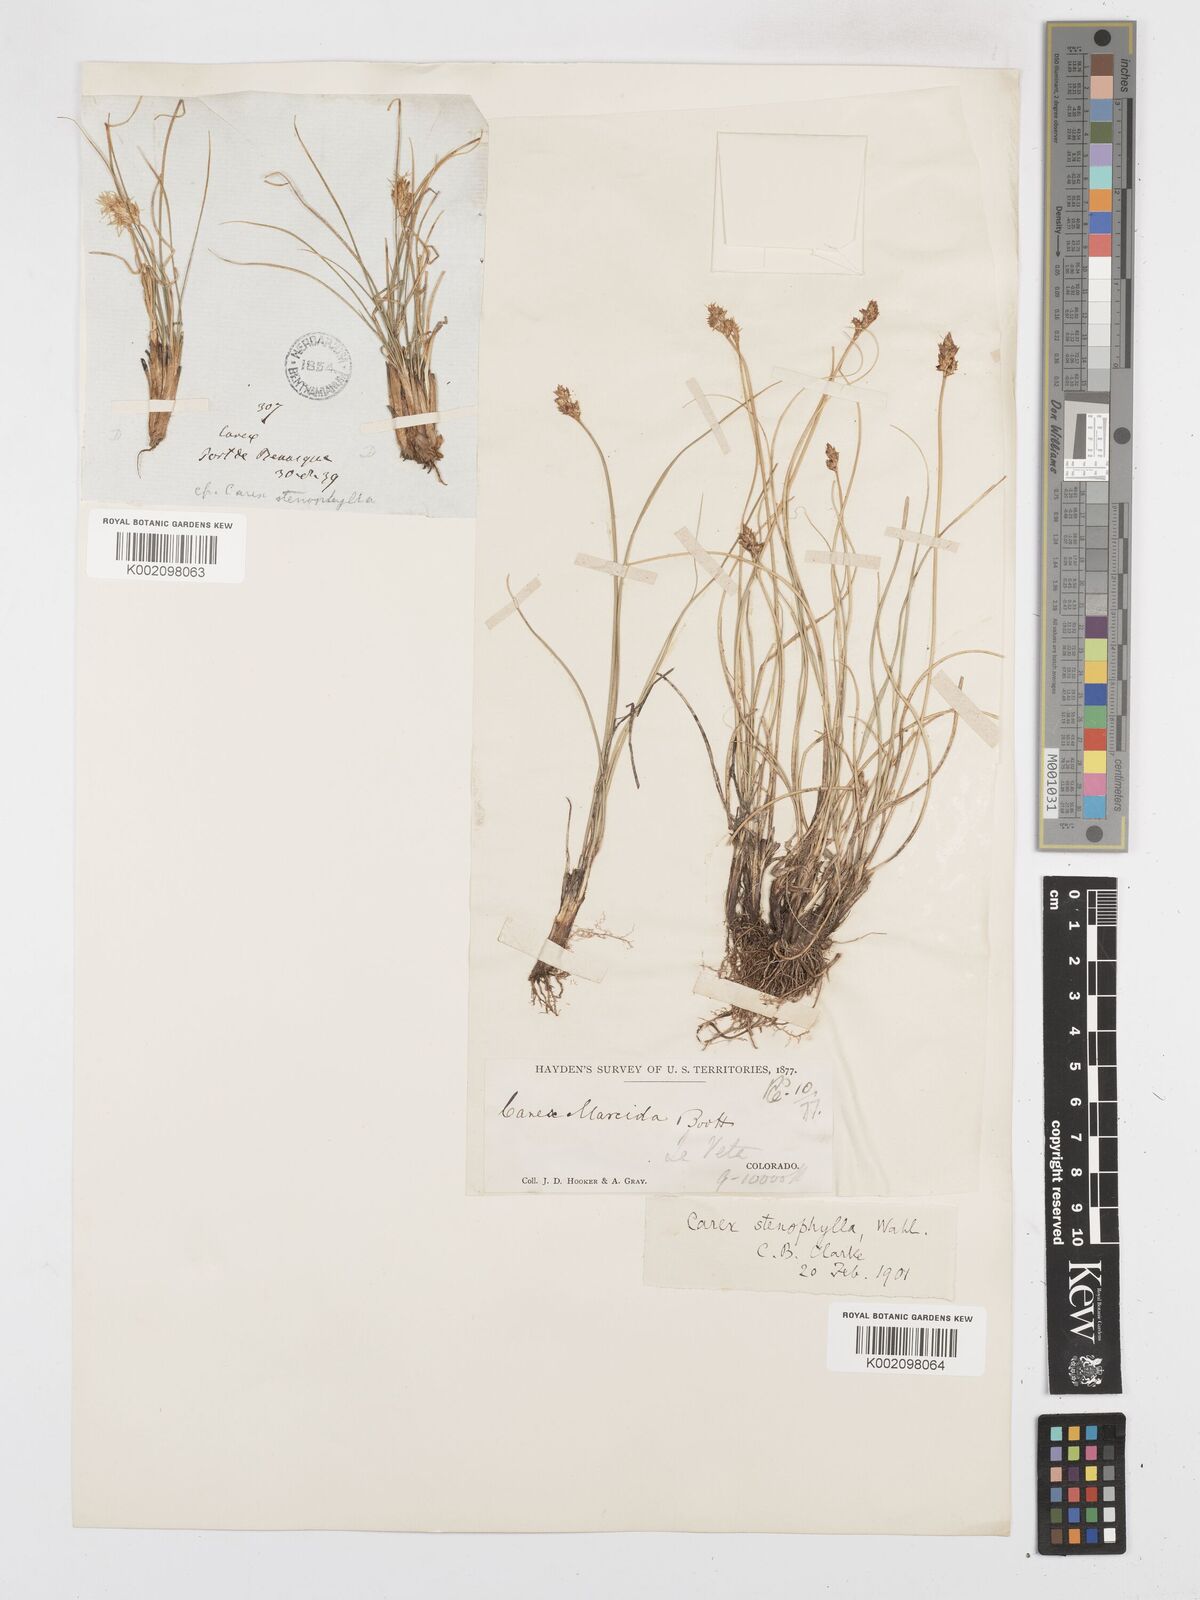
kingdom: Plantae
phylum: Tracheophyta
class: Liliopsida
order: Poales
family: Cyperaceae
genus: Carex
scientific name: Carex simulata
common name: Analogue sedge
